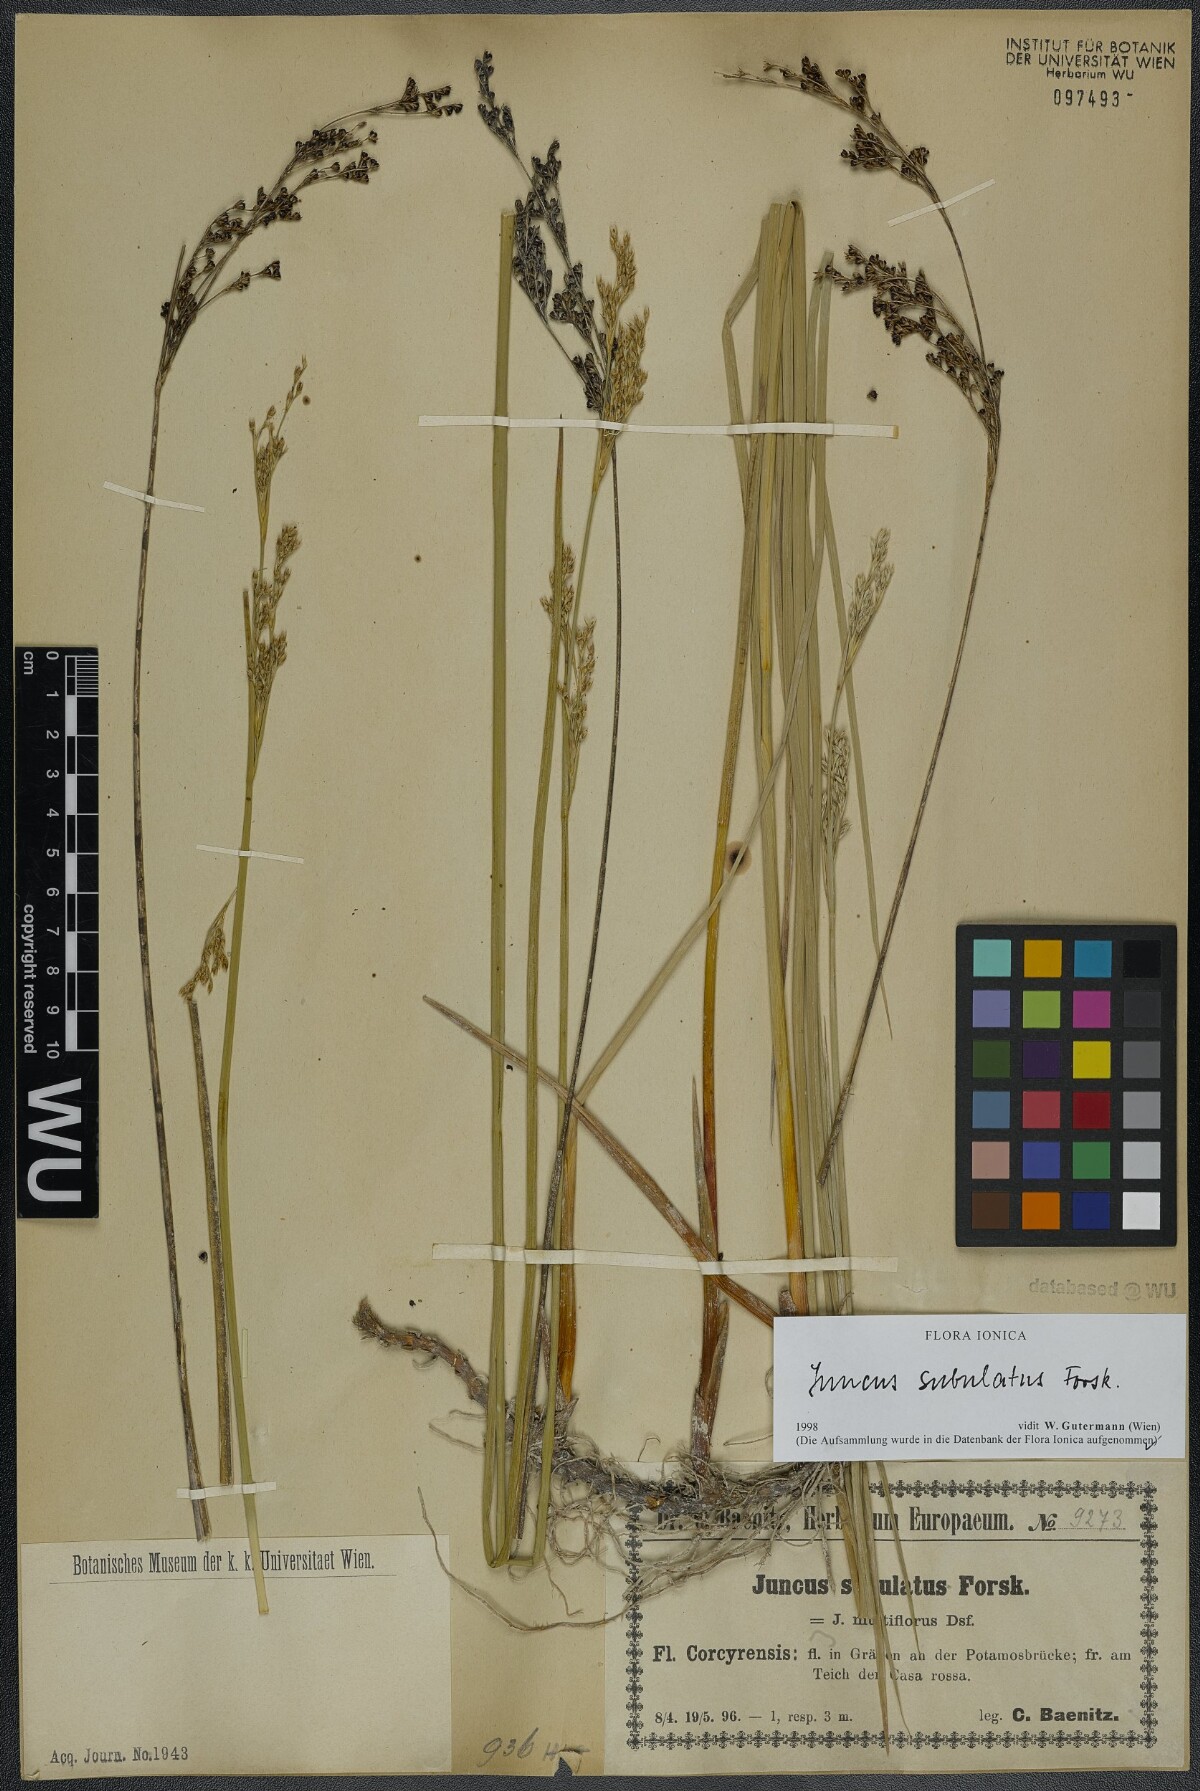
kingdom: Plantae
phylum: Tracheophyta
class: Liliopsida
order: Poales
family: Juncaceae
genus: Juncus
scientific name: Juncus subulatus
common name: Somerset rush
